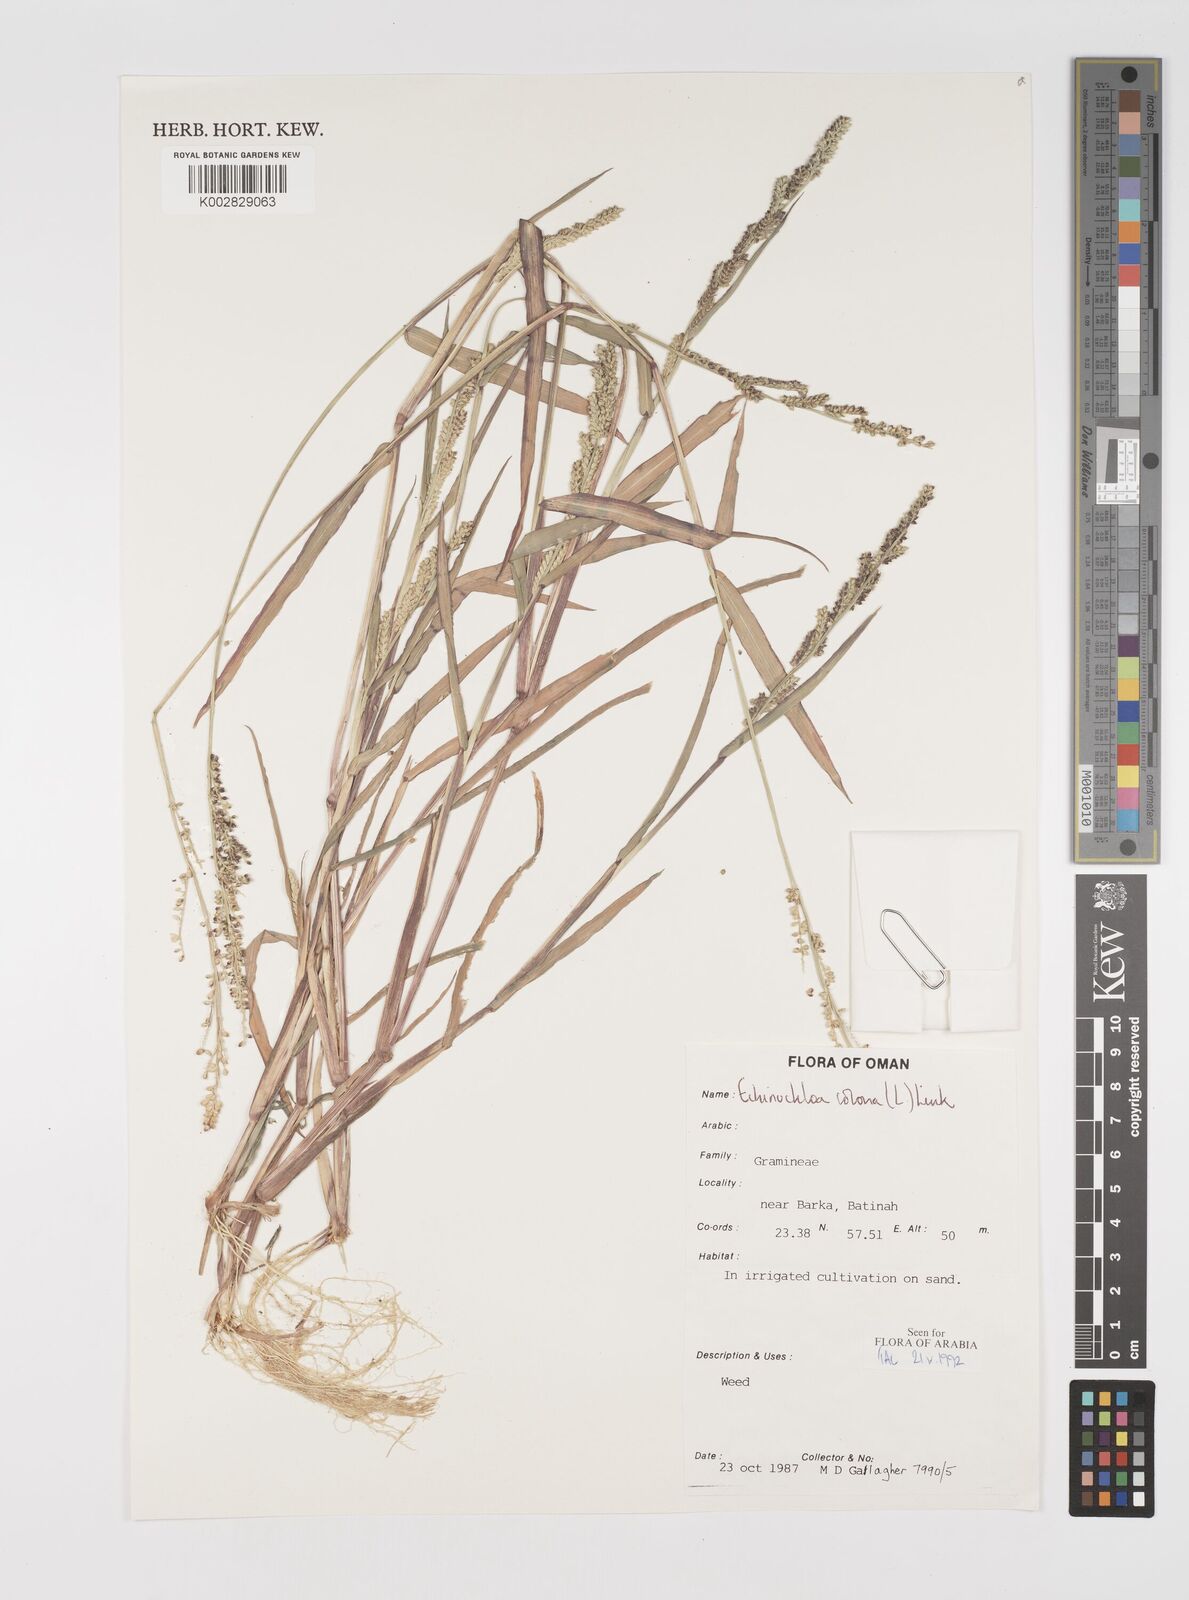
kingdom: Plantae
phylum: Tracheophyta
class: Liliopsida
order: Poales
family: Poaceae
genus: Echinochloa
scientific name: Echinochloa colonum
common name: Jungle rice
